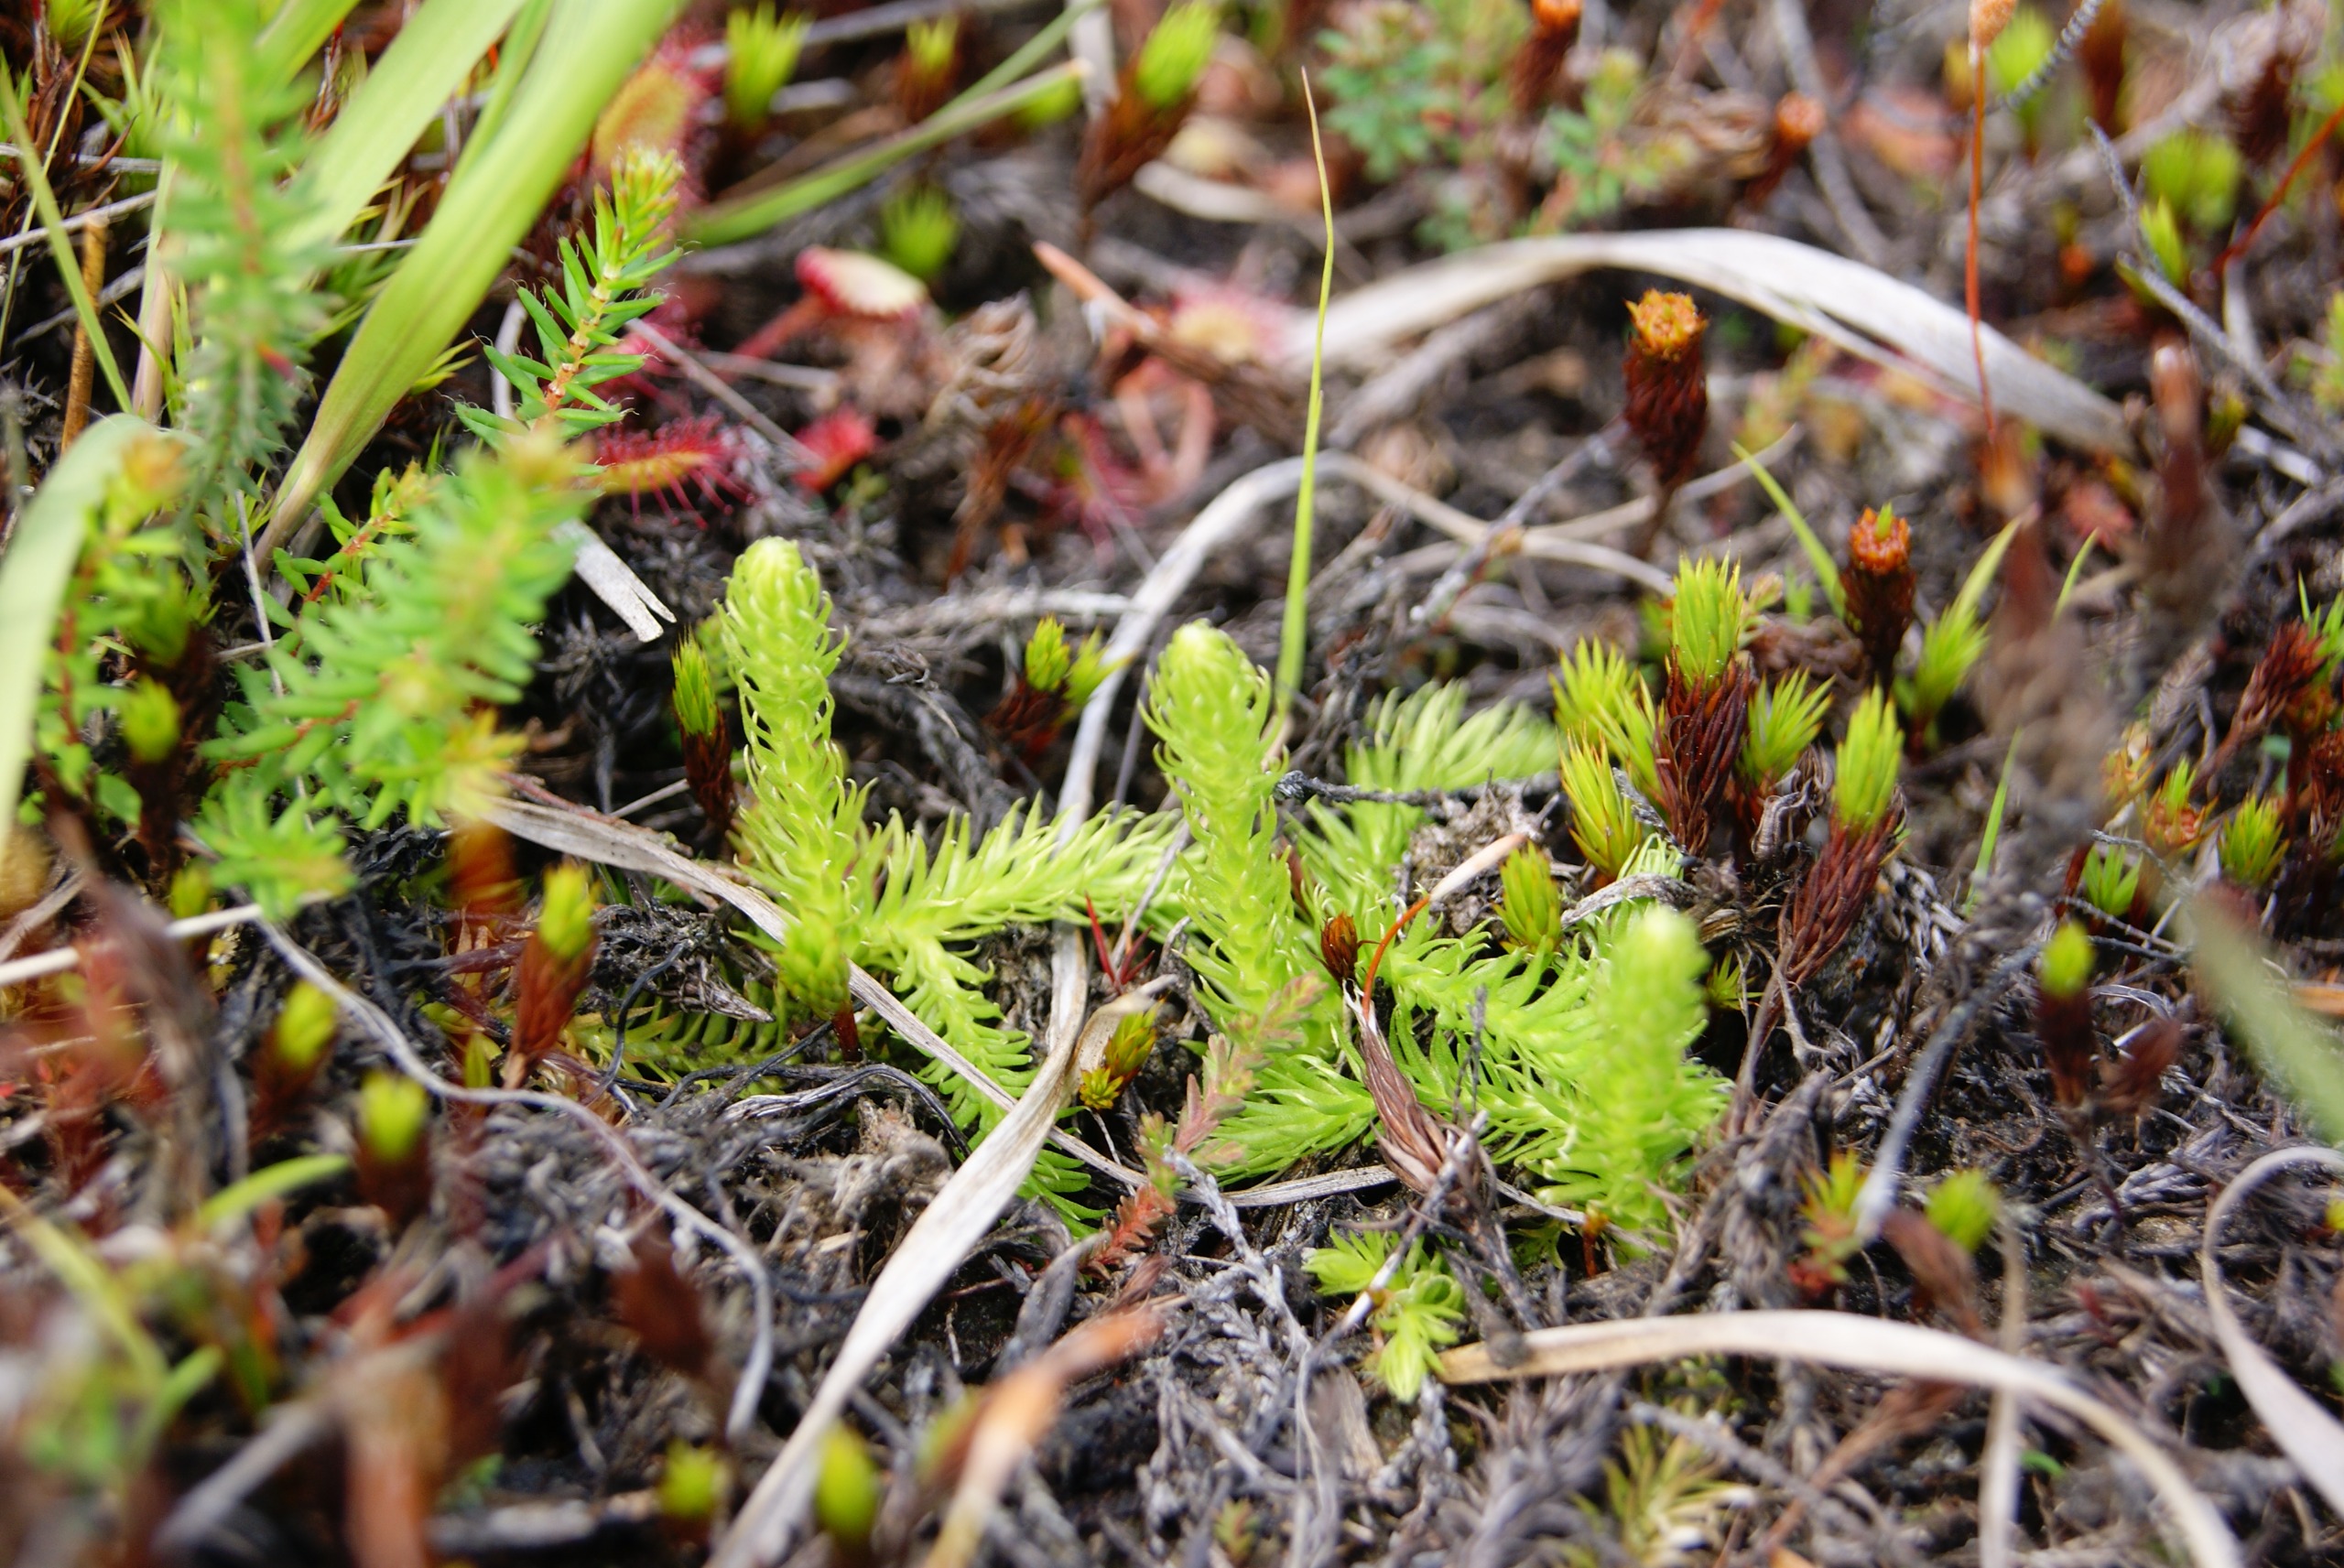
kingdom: Plantae
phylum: Tracheophyta
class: Lycopodiopsida
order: Lycopodiales
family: Lycopodiaceae
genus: Lycopodiella
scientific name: Lycopodiella inundata
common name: Liden ulvefod
